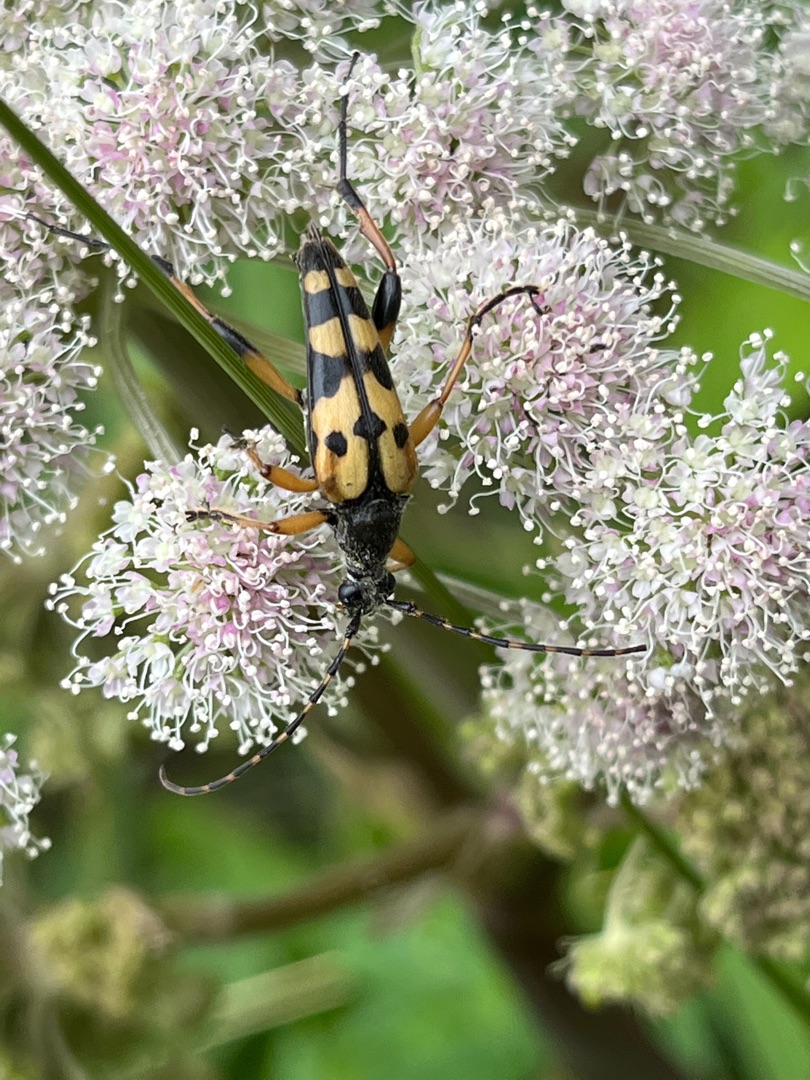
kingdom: Animalia
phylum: Arthropoda
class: Insecta
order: Coleoptera
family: Cerambycidae
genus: Rutpela
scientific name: Rutpela maculata
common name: Sydlig blomsterbuk
